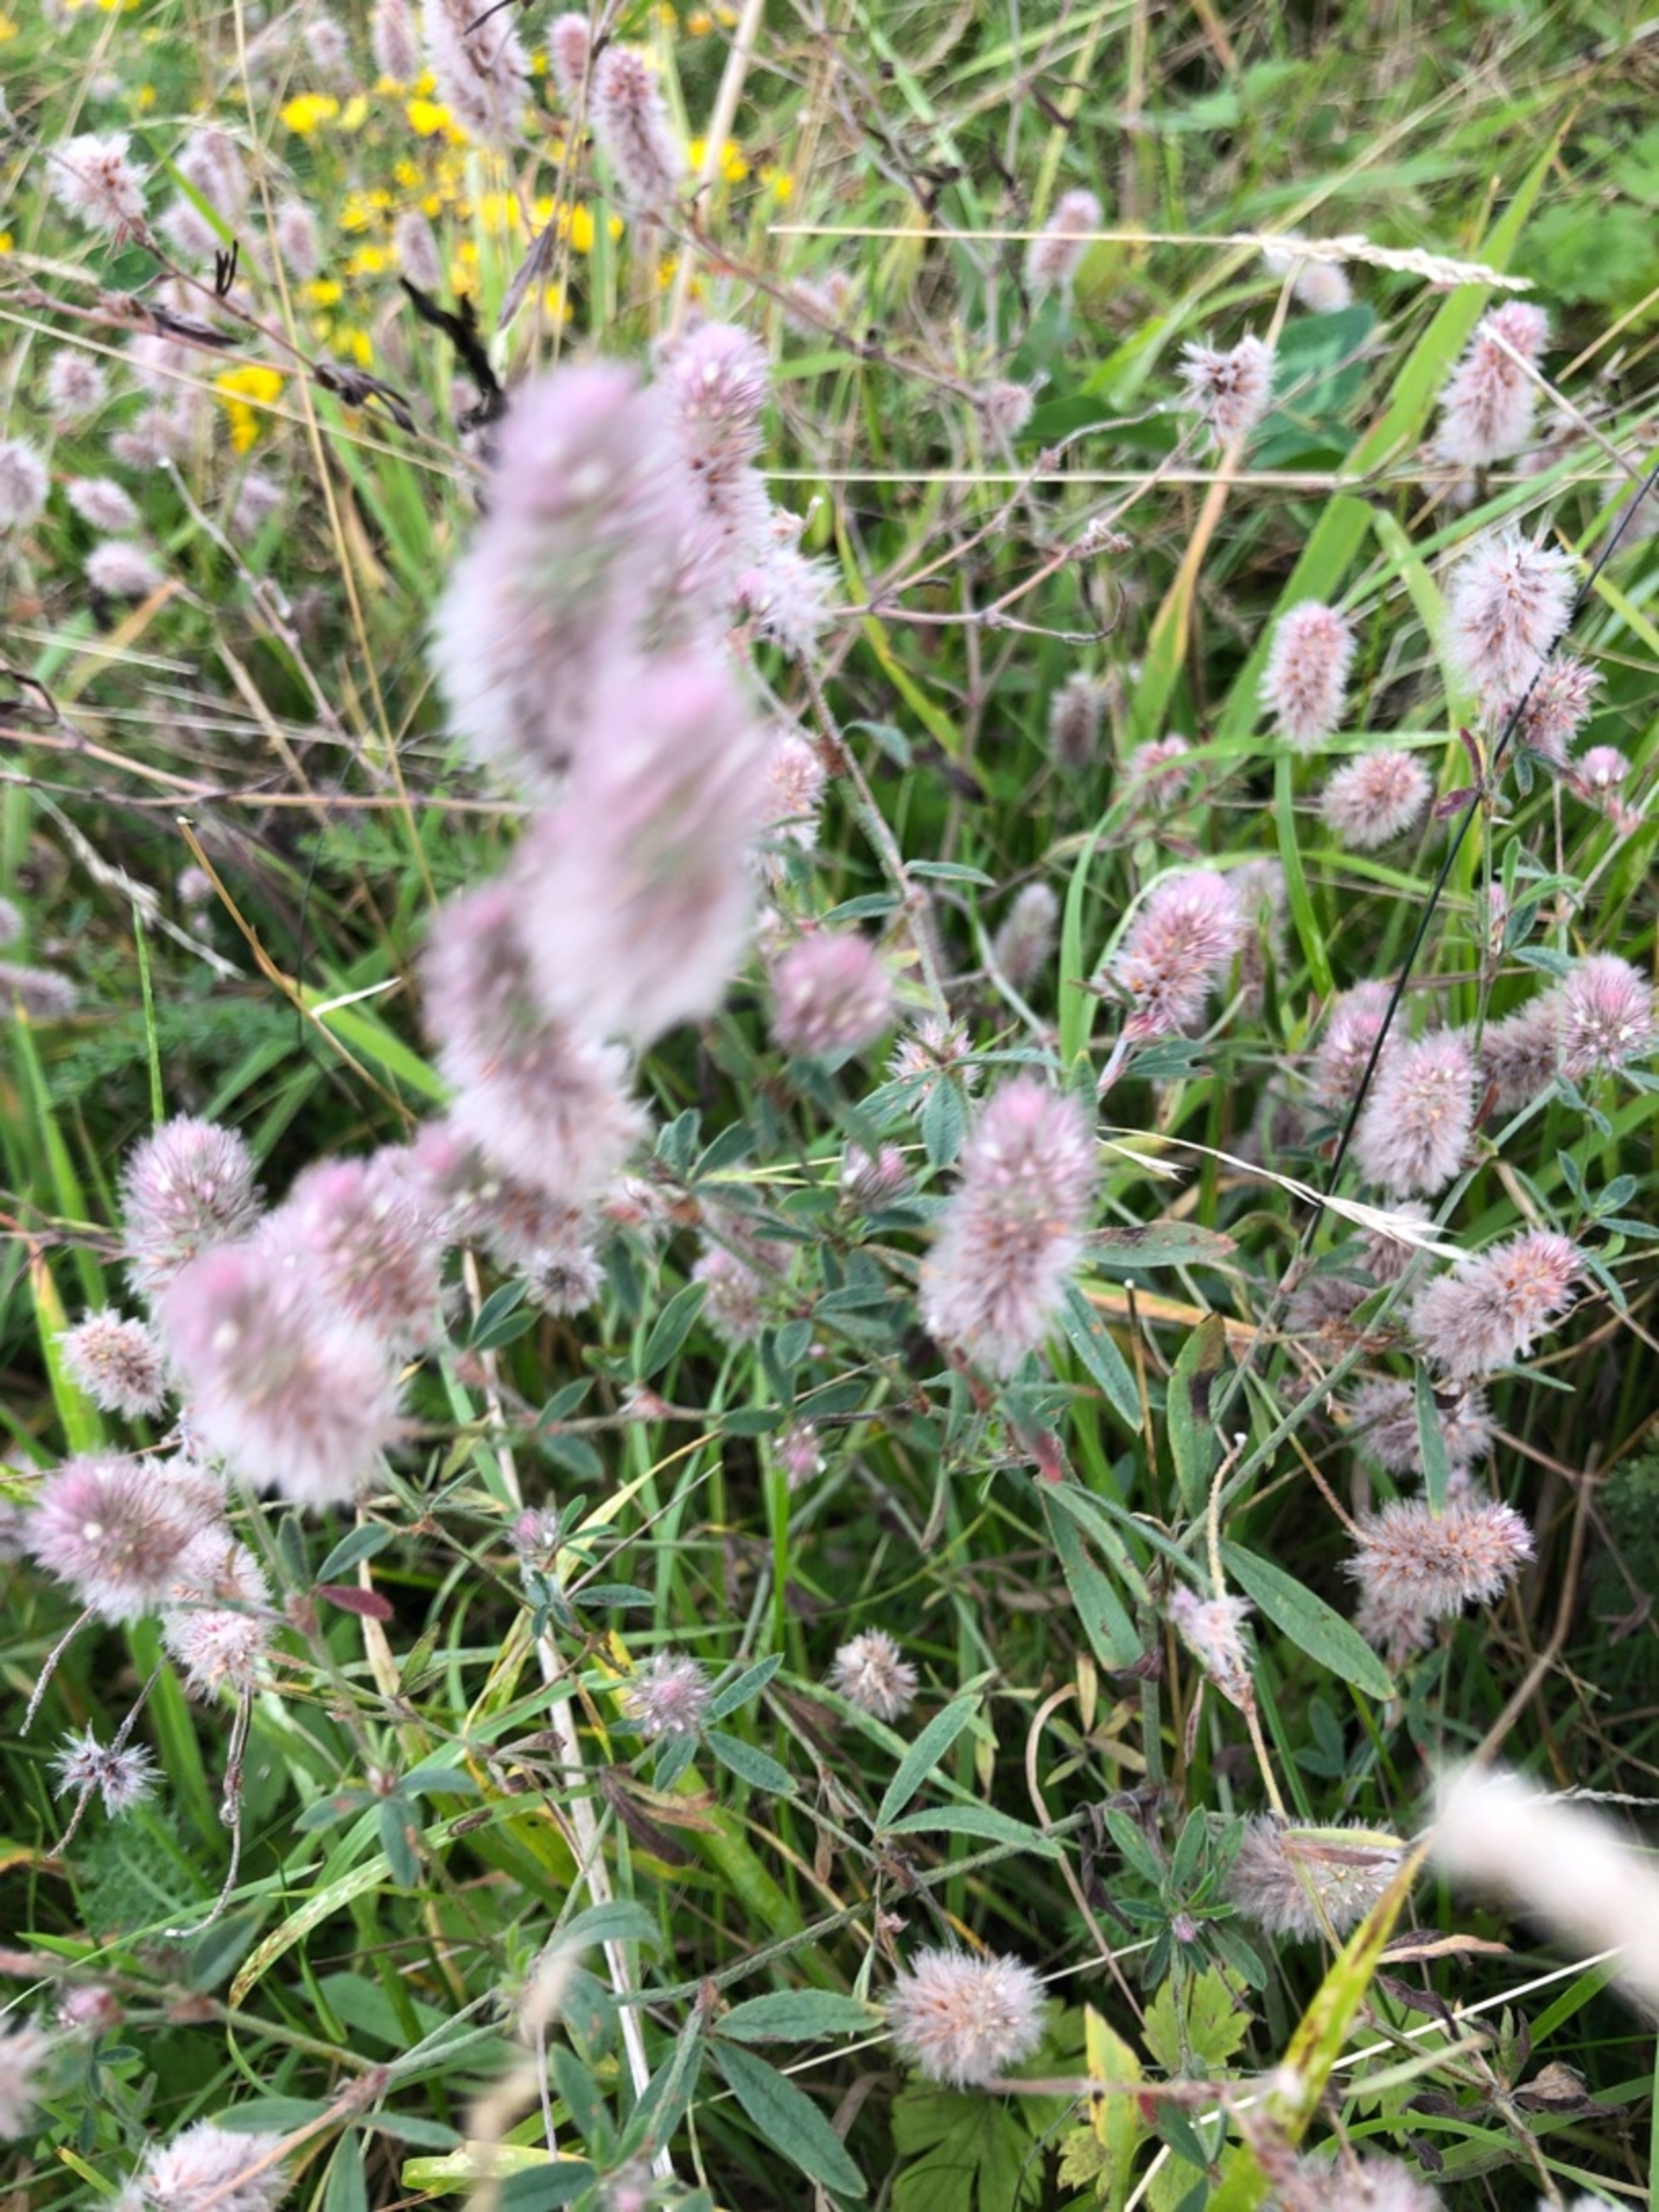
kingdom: Plantae
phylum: Tracheophyta
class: Magnoliopsida
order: Fabales
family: Fabaceae
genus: Trifolium
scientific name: Trifolium arvense
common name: Hare-kløver
